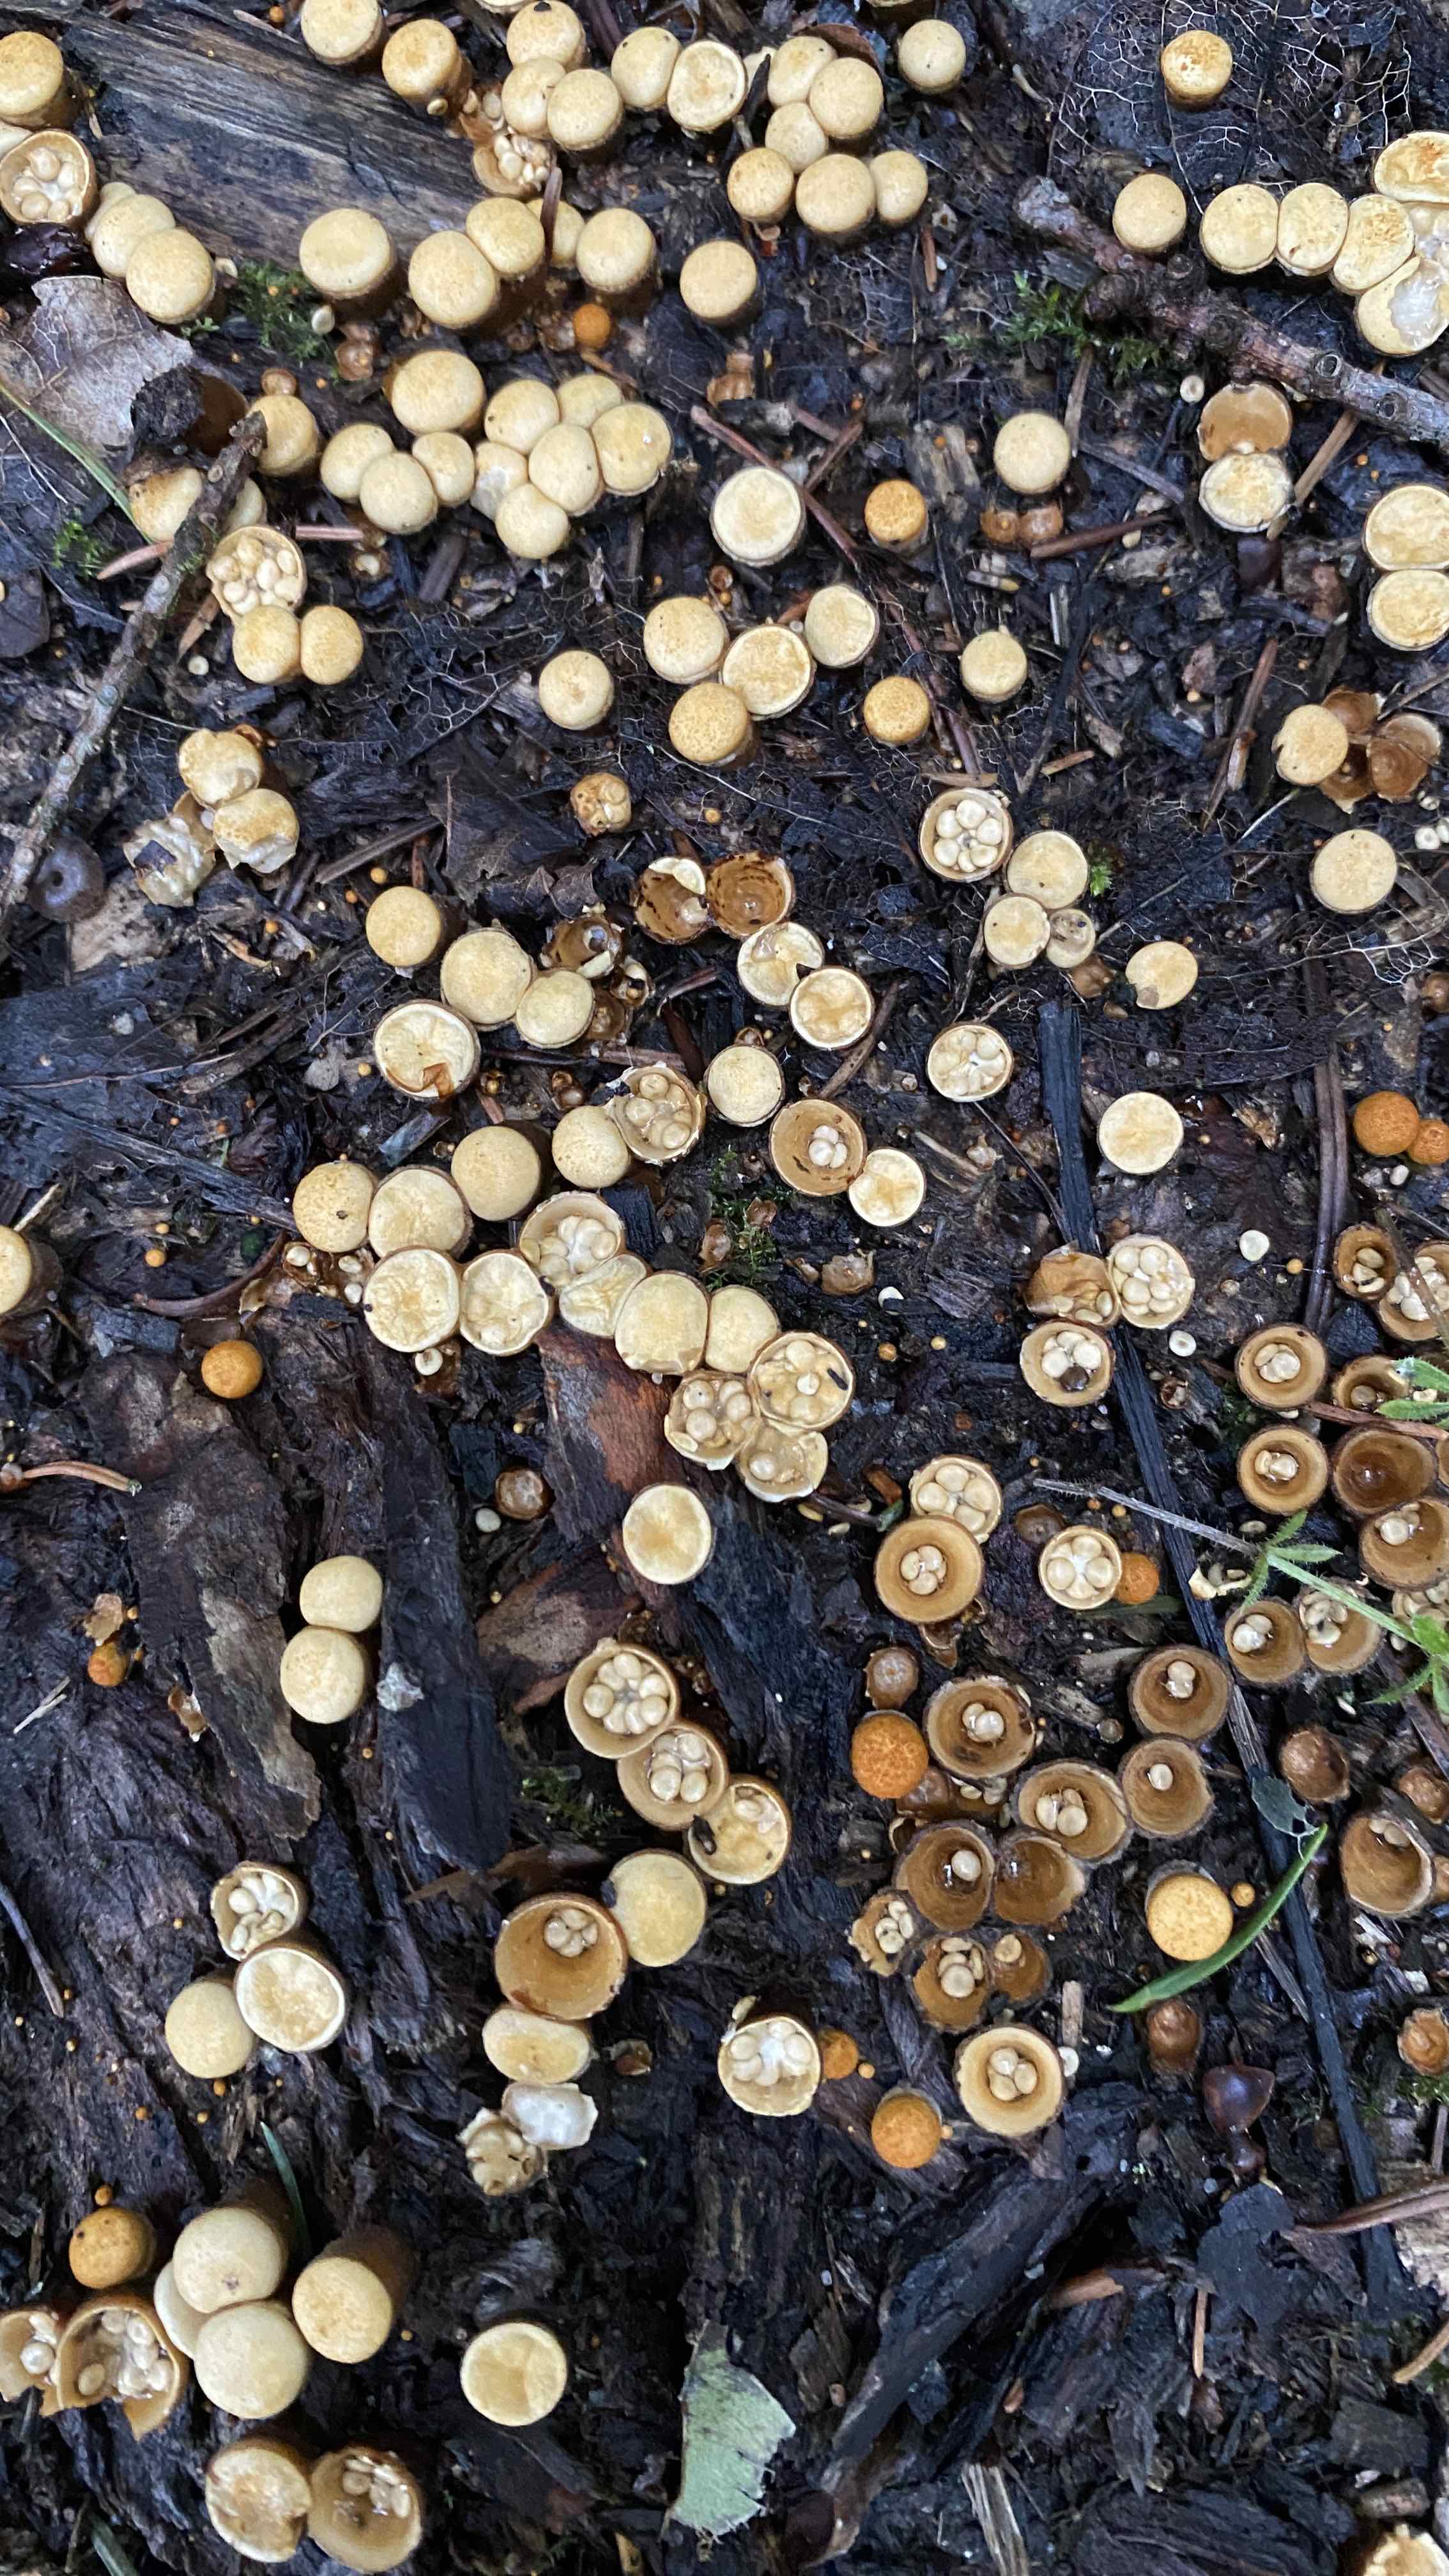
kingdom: Fungi
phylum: Basidiomycota
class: Agaricomycetes
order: Agaricales
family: Nidulariaceae
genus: Crucibulum
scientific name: Crucibulum crucibuliforme
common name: krukkesvamp
